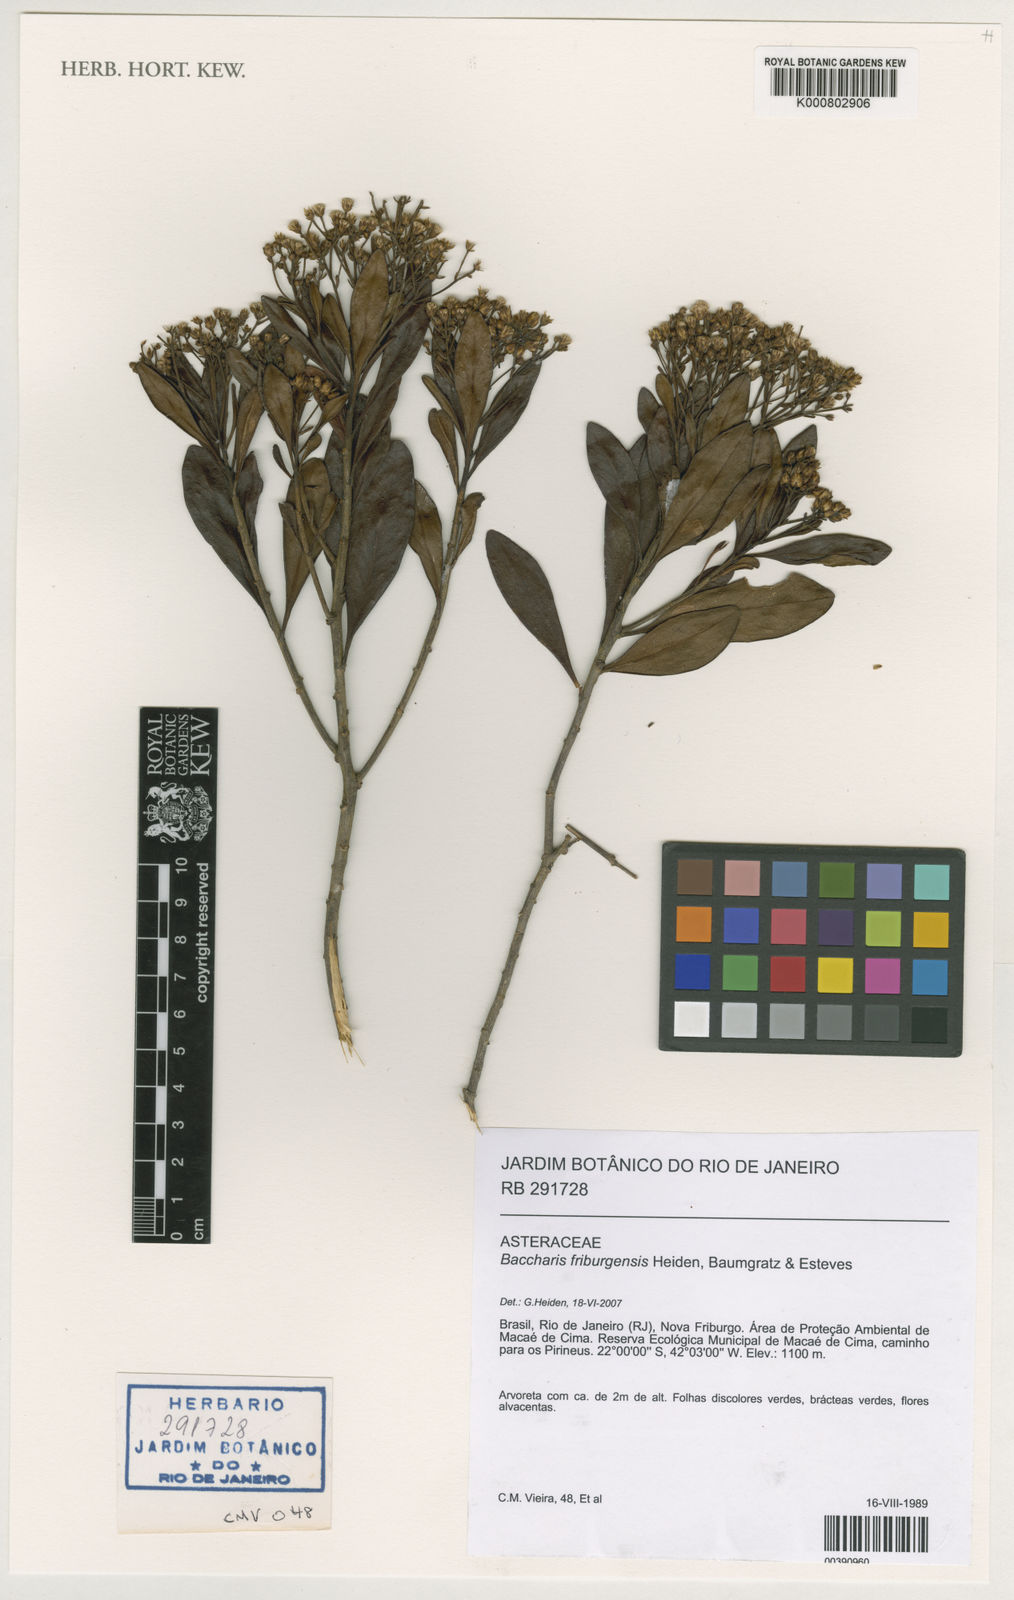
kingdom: Plantae
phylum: Tracheophyta
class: Magnoliopsida
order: Asterales
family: Asteraceae
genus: Baccharis
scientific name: Baccharis
